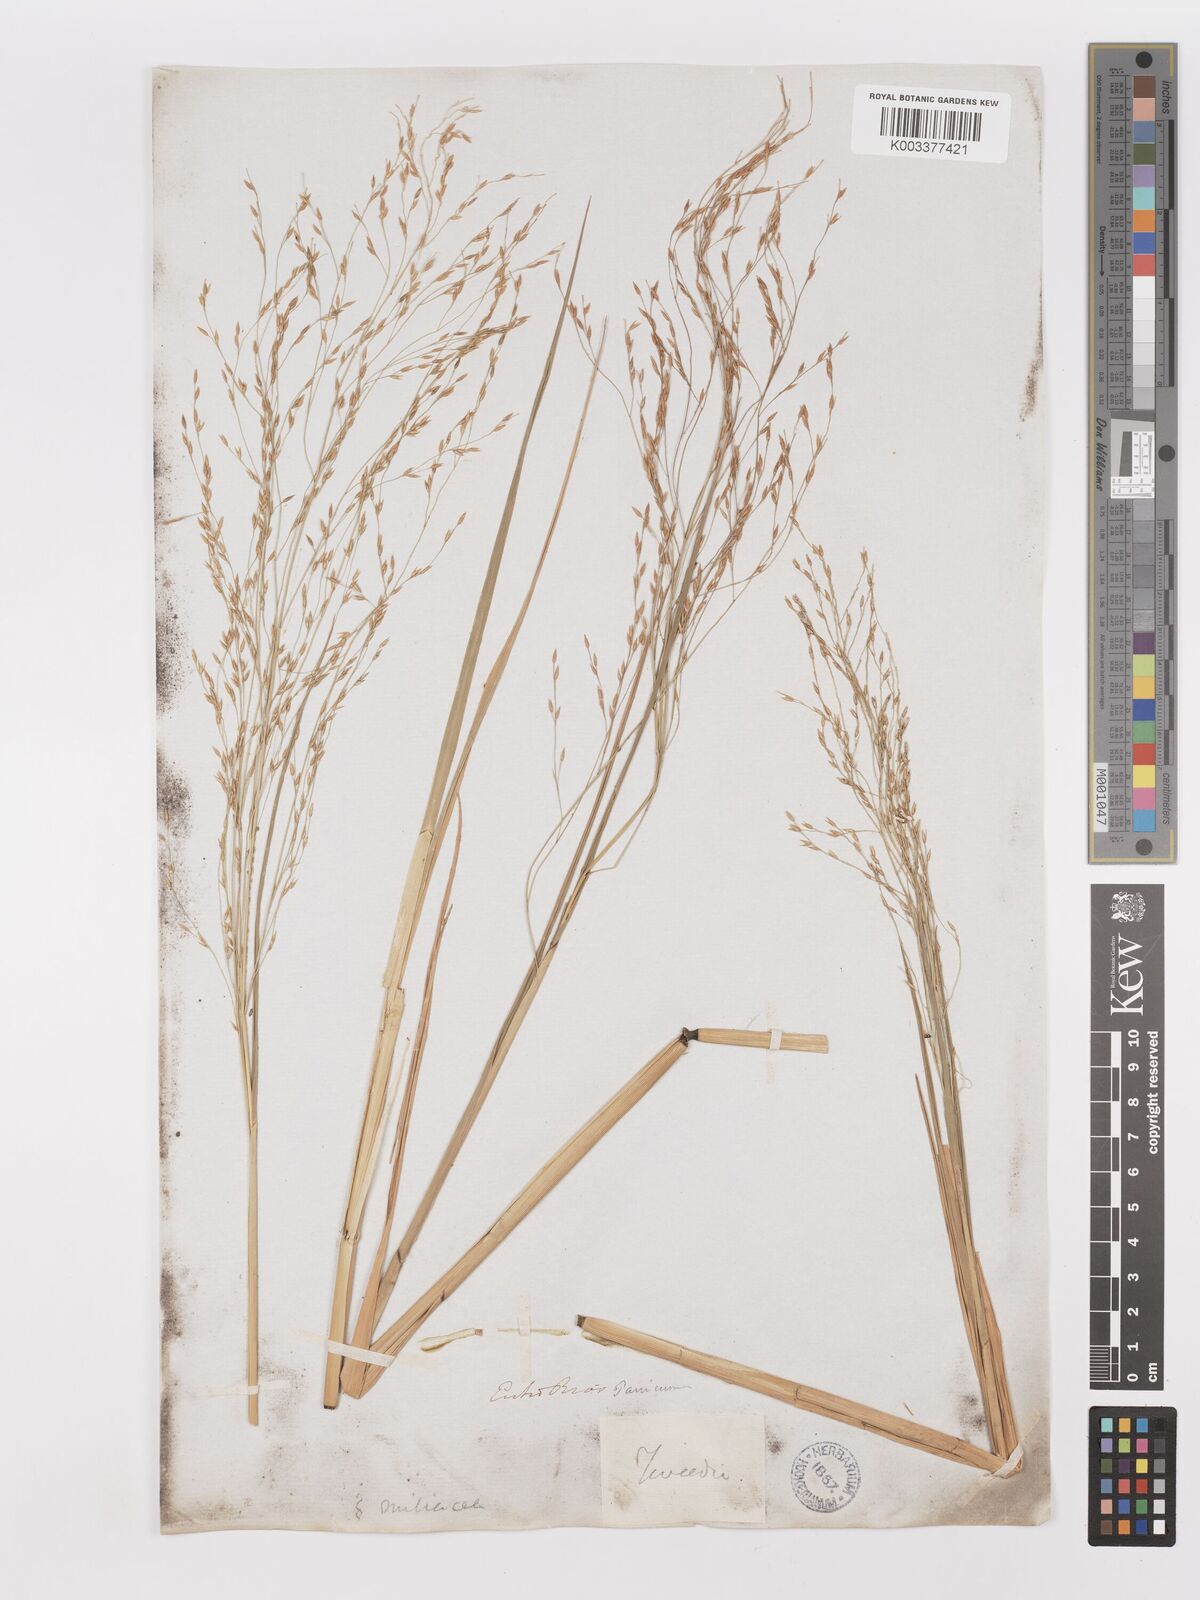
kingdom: Plantae
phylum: Tracheophyta
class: Liliopsida
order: Poales
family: Poaceae
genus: Louisiella
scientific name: Louisiella elephantipes
